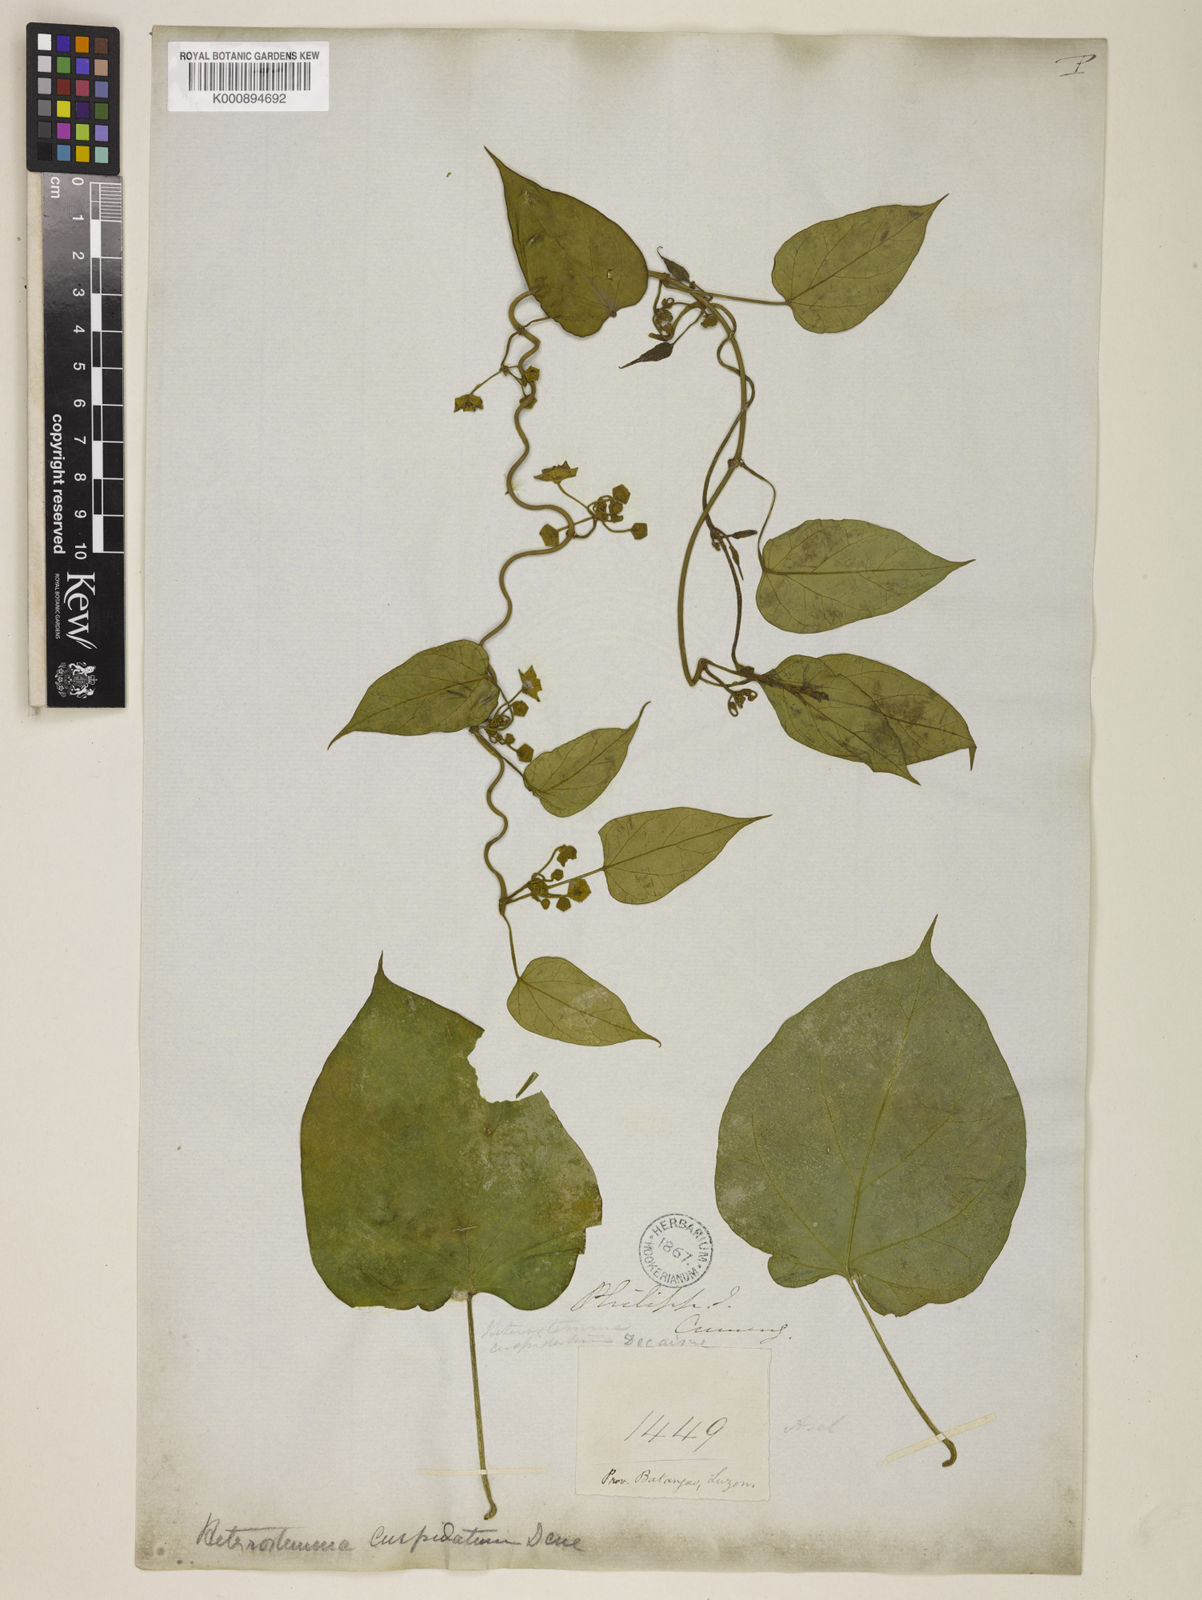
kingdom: Plantae
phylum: Tracheophyta
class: Magnoliopsida
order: Gentianales
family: Apocynaceae
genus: Heterostemma
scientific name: Heterostemma cuspidatum
